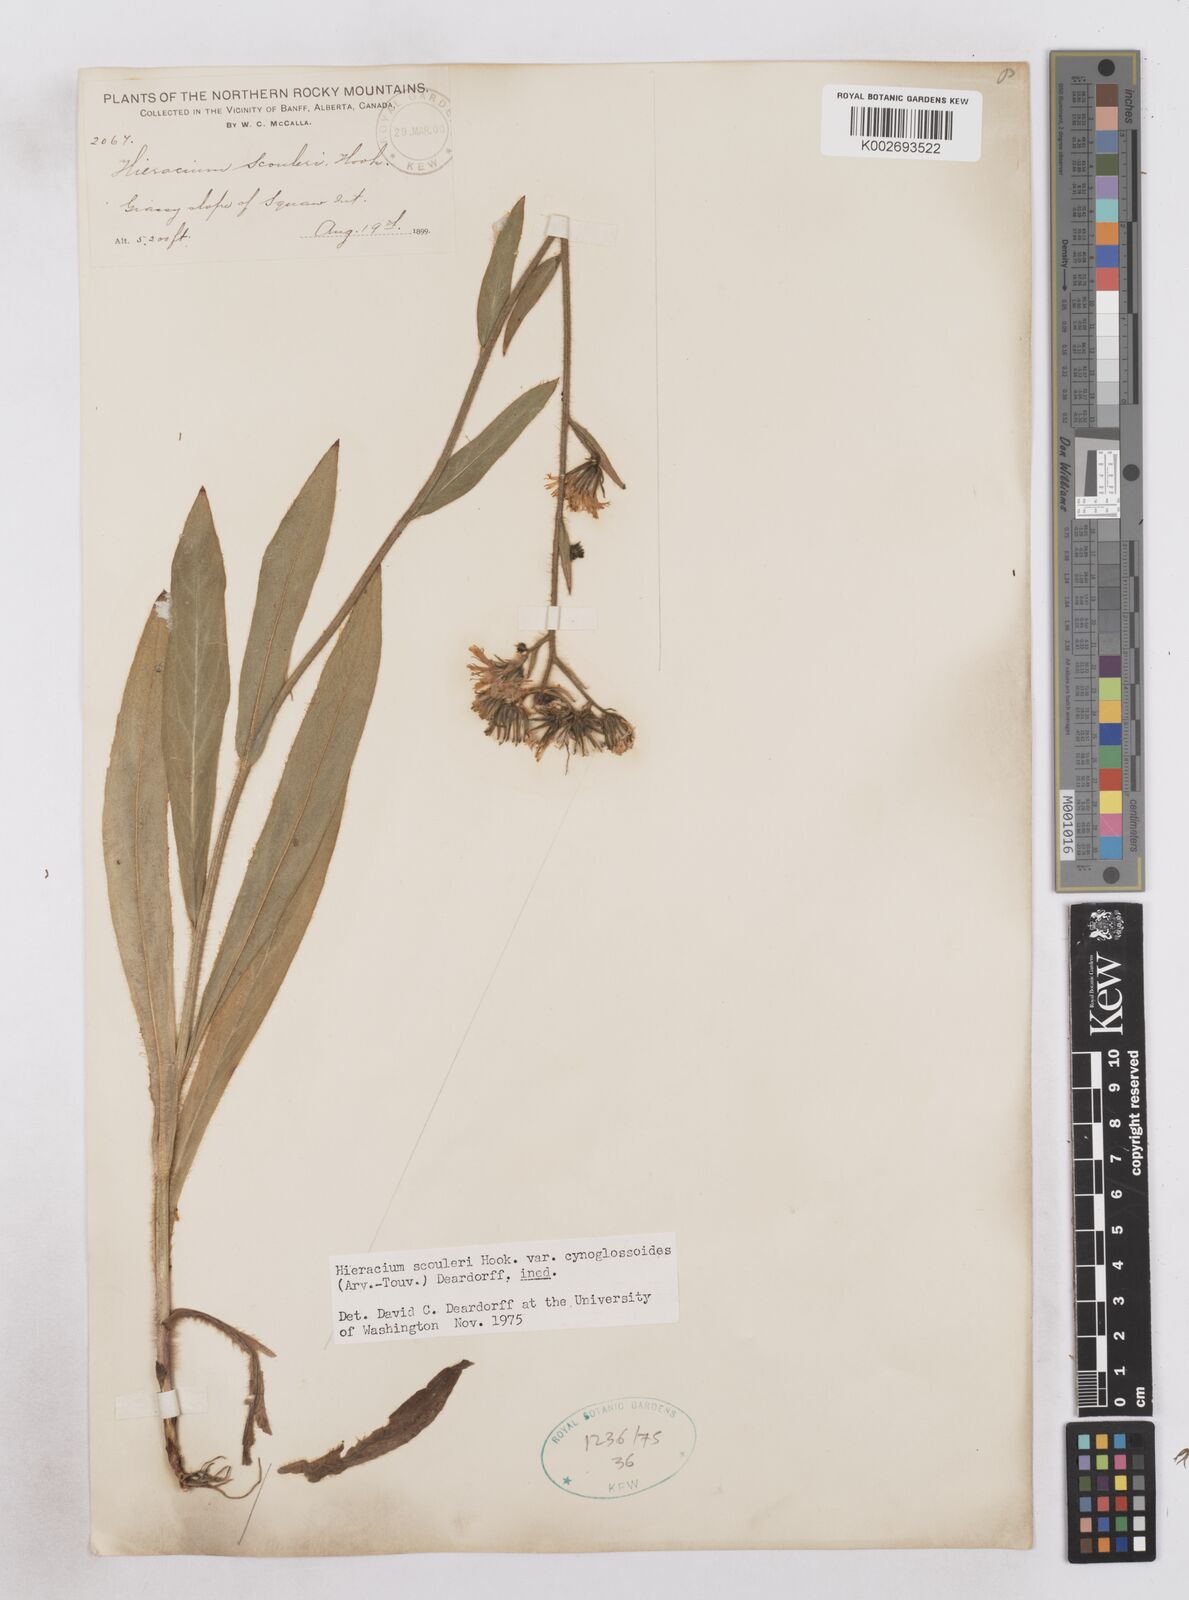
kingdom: Plantae
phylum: Tracheophyta
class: Magnoliopsida
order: Asterales
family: Asteraceae
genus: Hieracium
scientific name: Hieracium scouleri
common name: Hound's-tongue hawkweed
